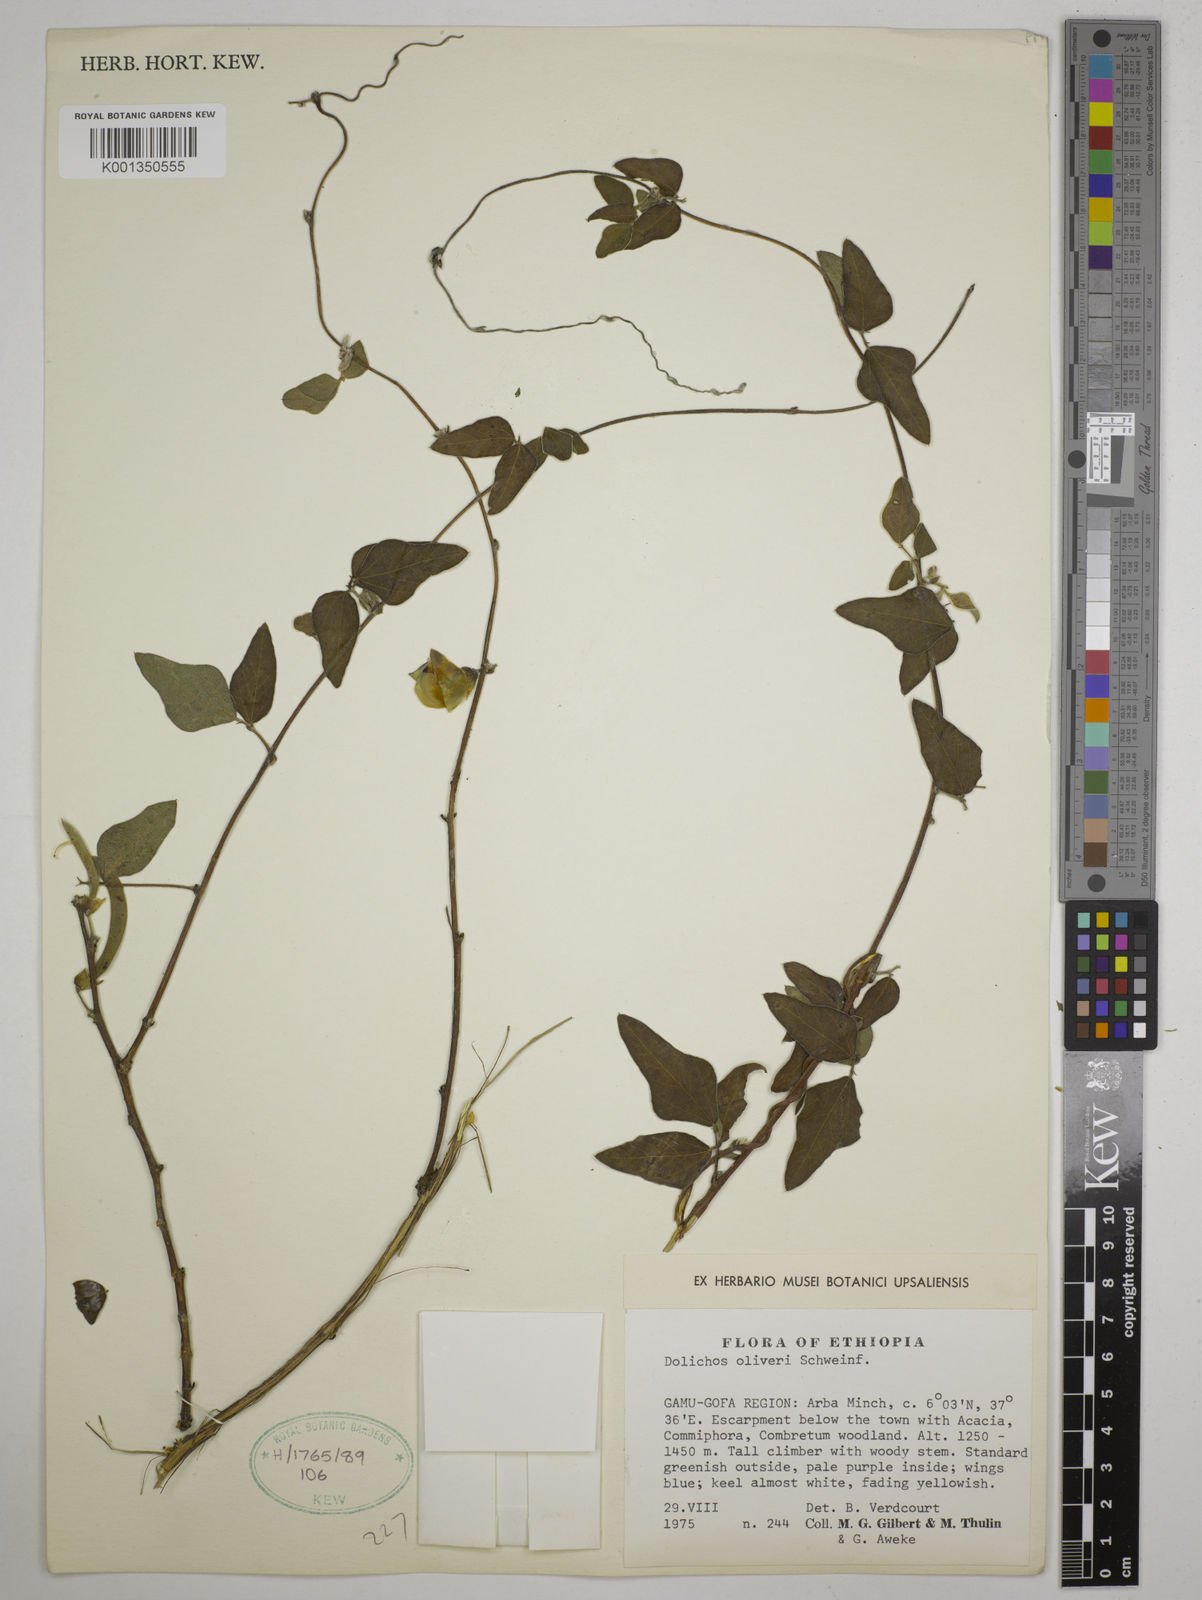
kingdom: Plantae
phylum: Tracheophyta
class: Magnoliopsida
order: Fabales
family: Fabaceae
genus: Dolichos
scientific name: Dolichos oliveri
